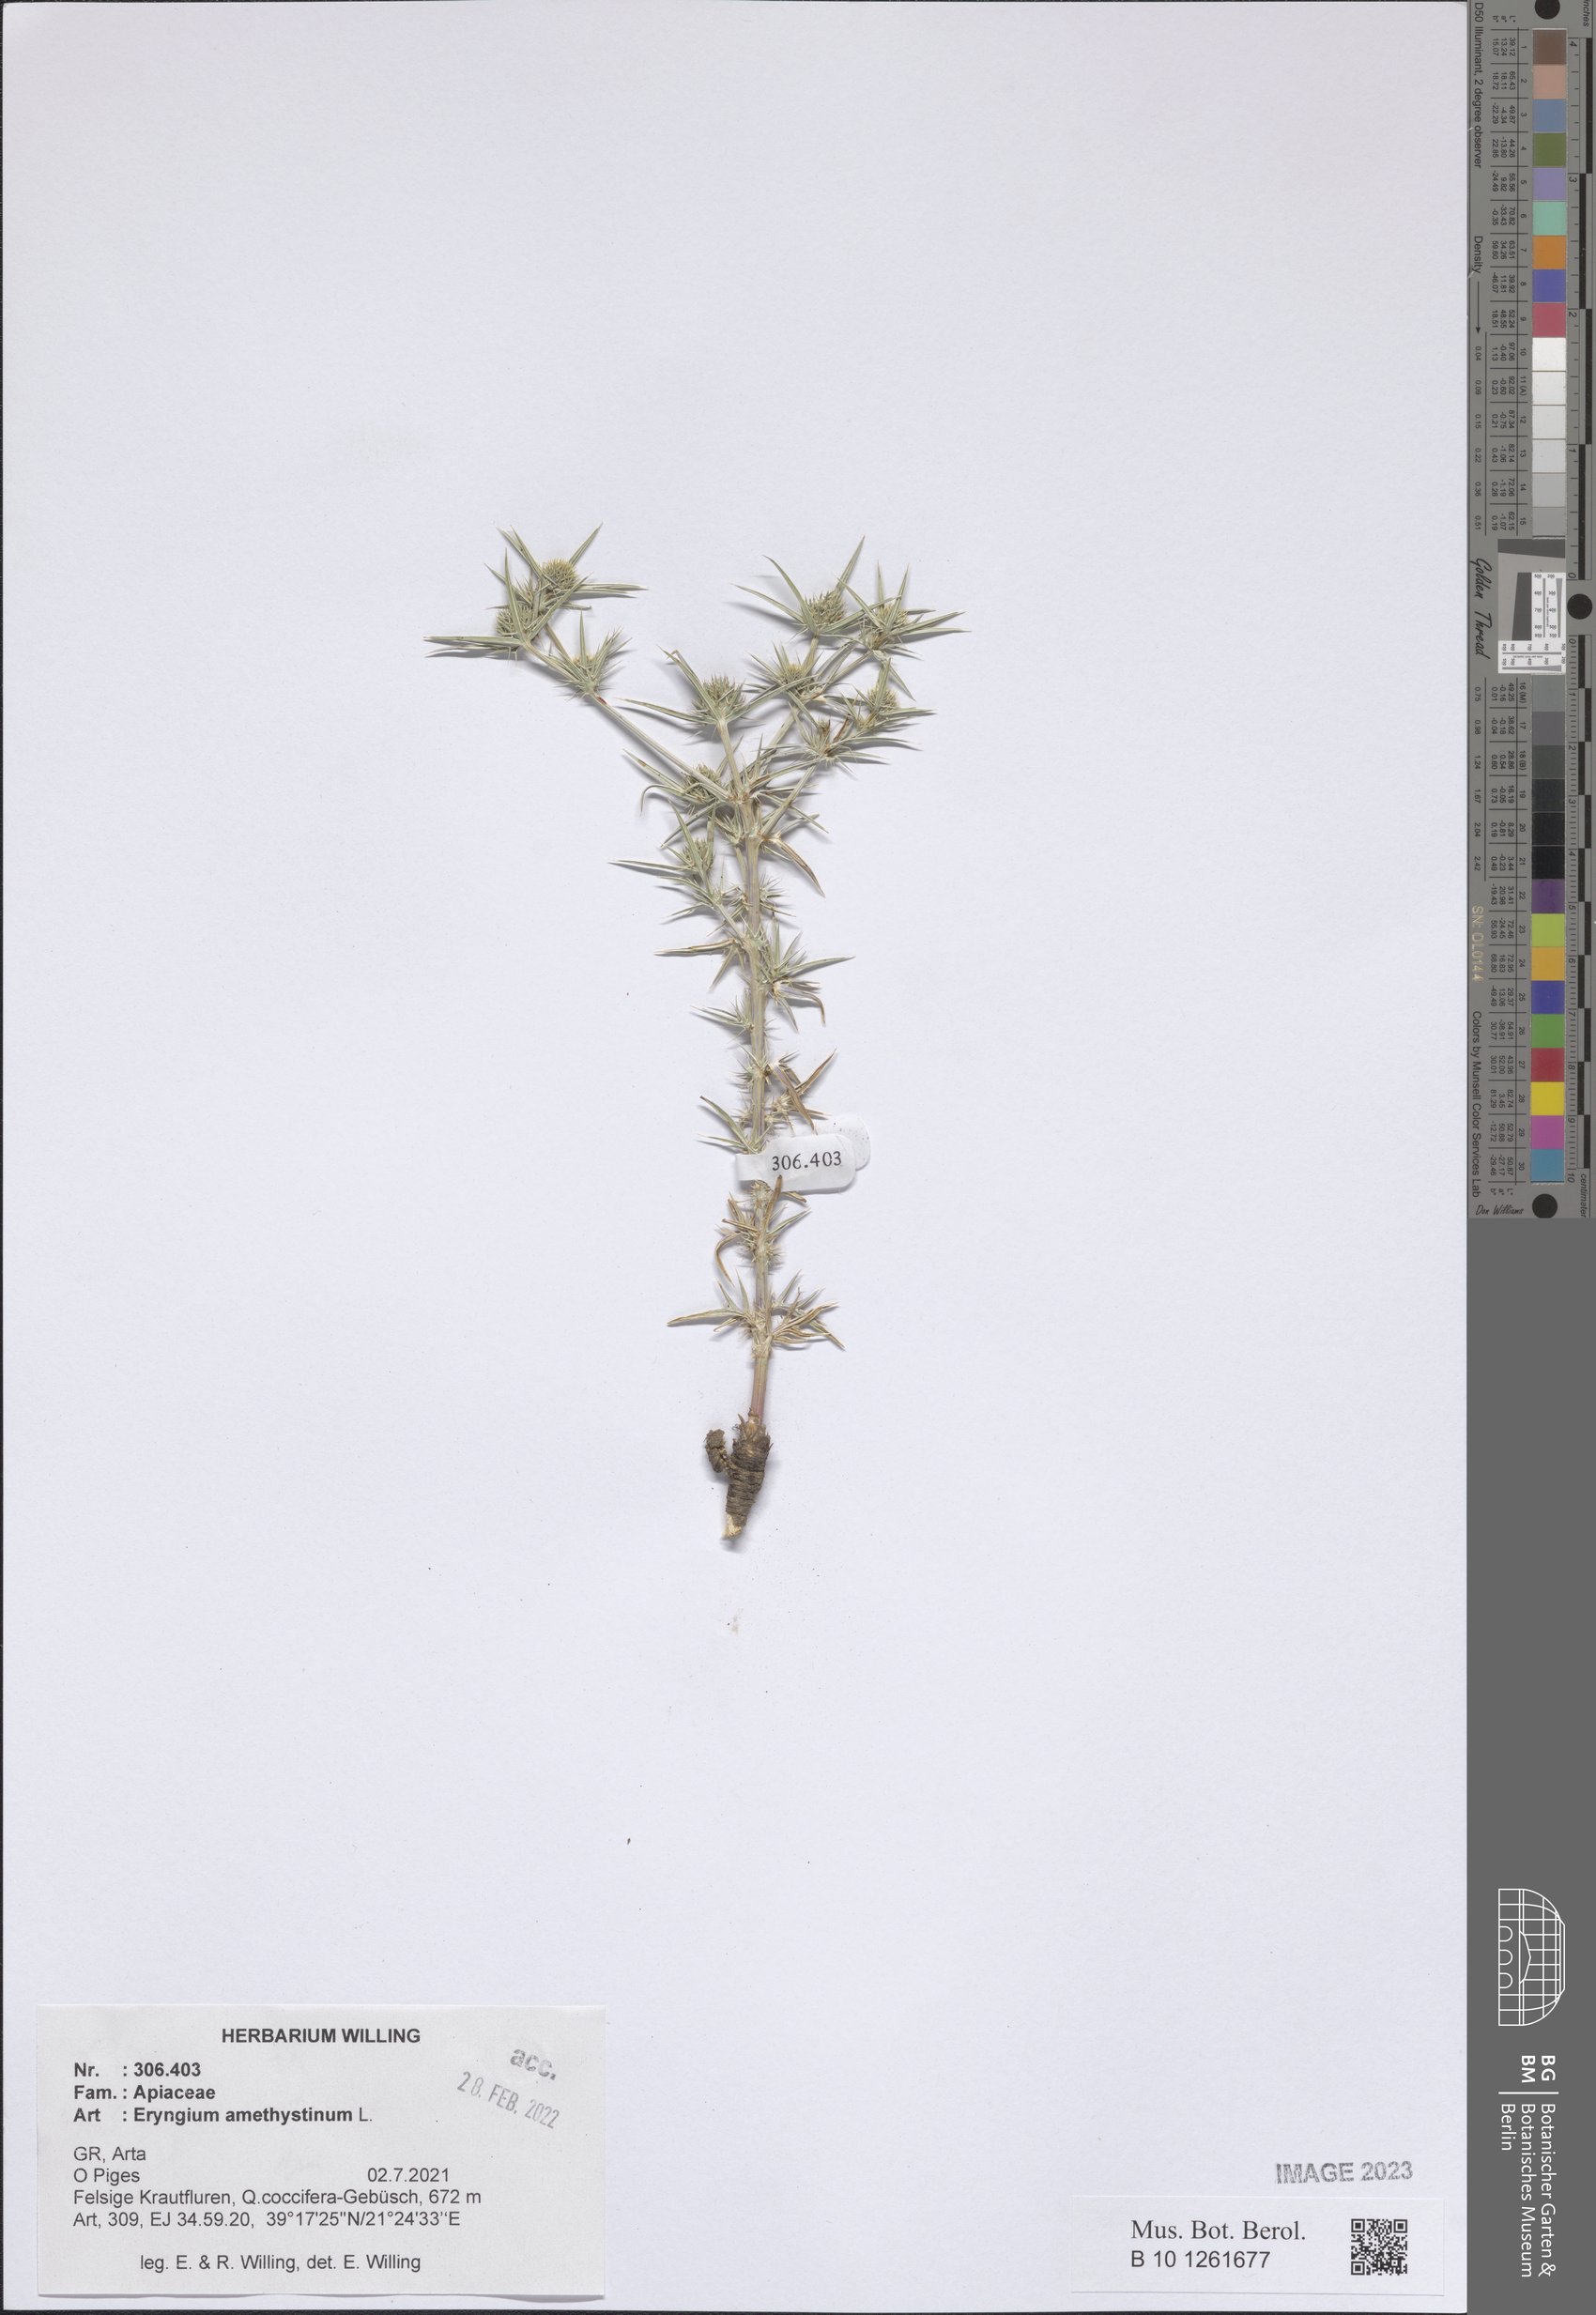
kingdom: Plantae
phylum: Tracheophyta
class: Magnoliopsida
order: Apiales
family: Apiaceae
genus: Eryngium
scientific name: Eryngium amethystinum
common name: Amethyst eryngo
